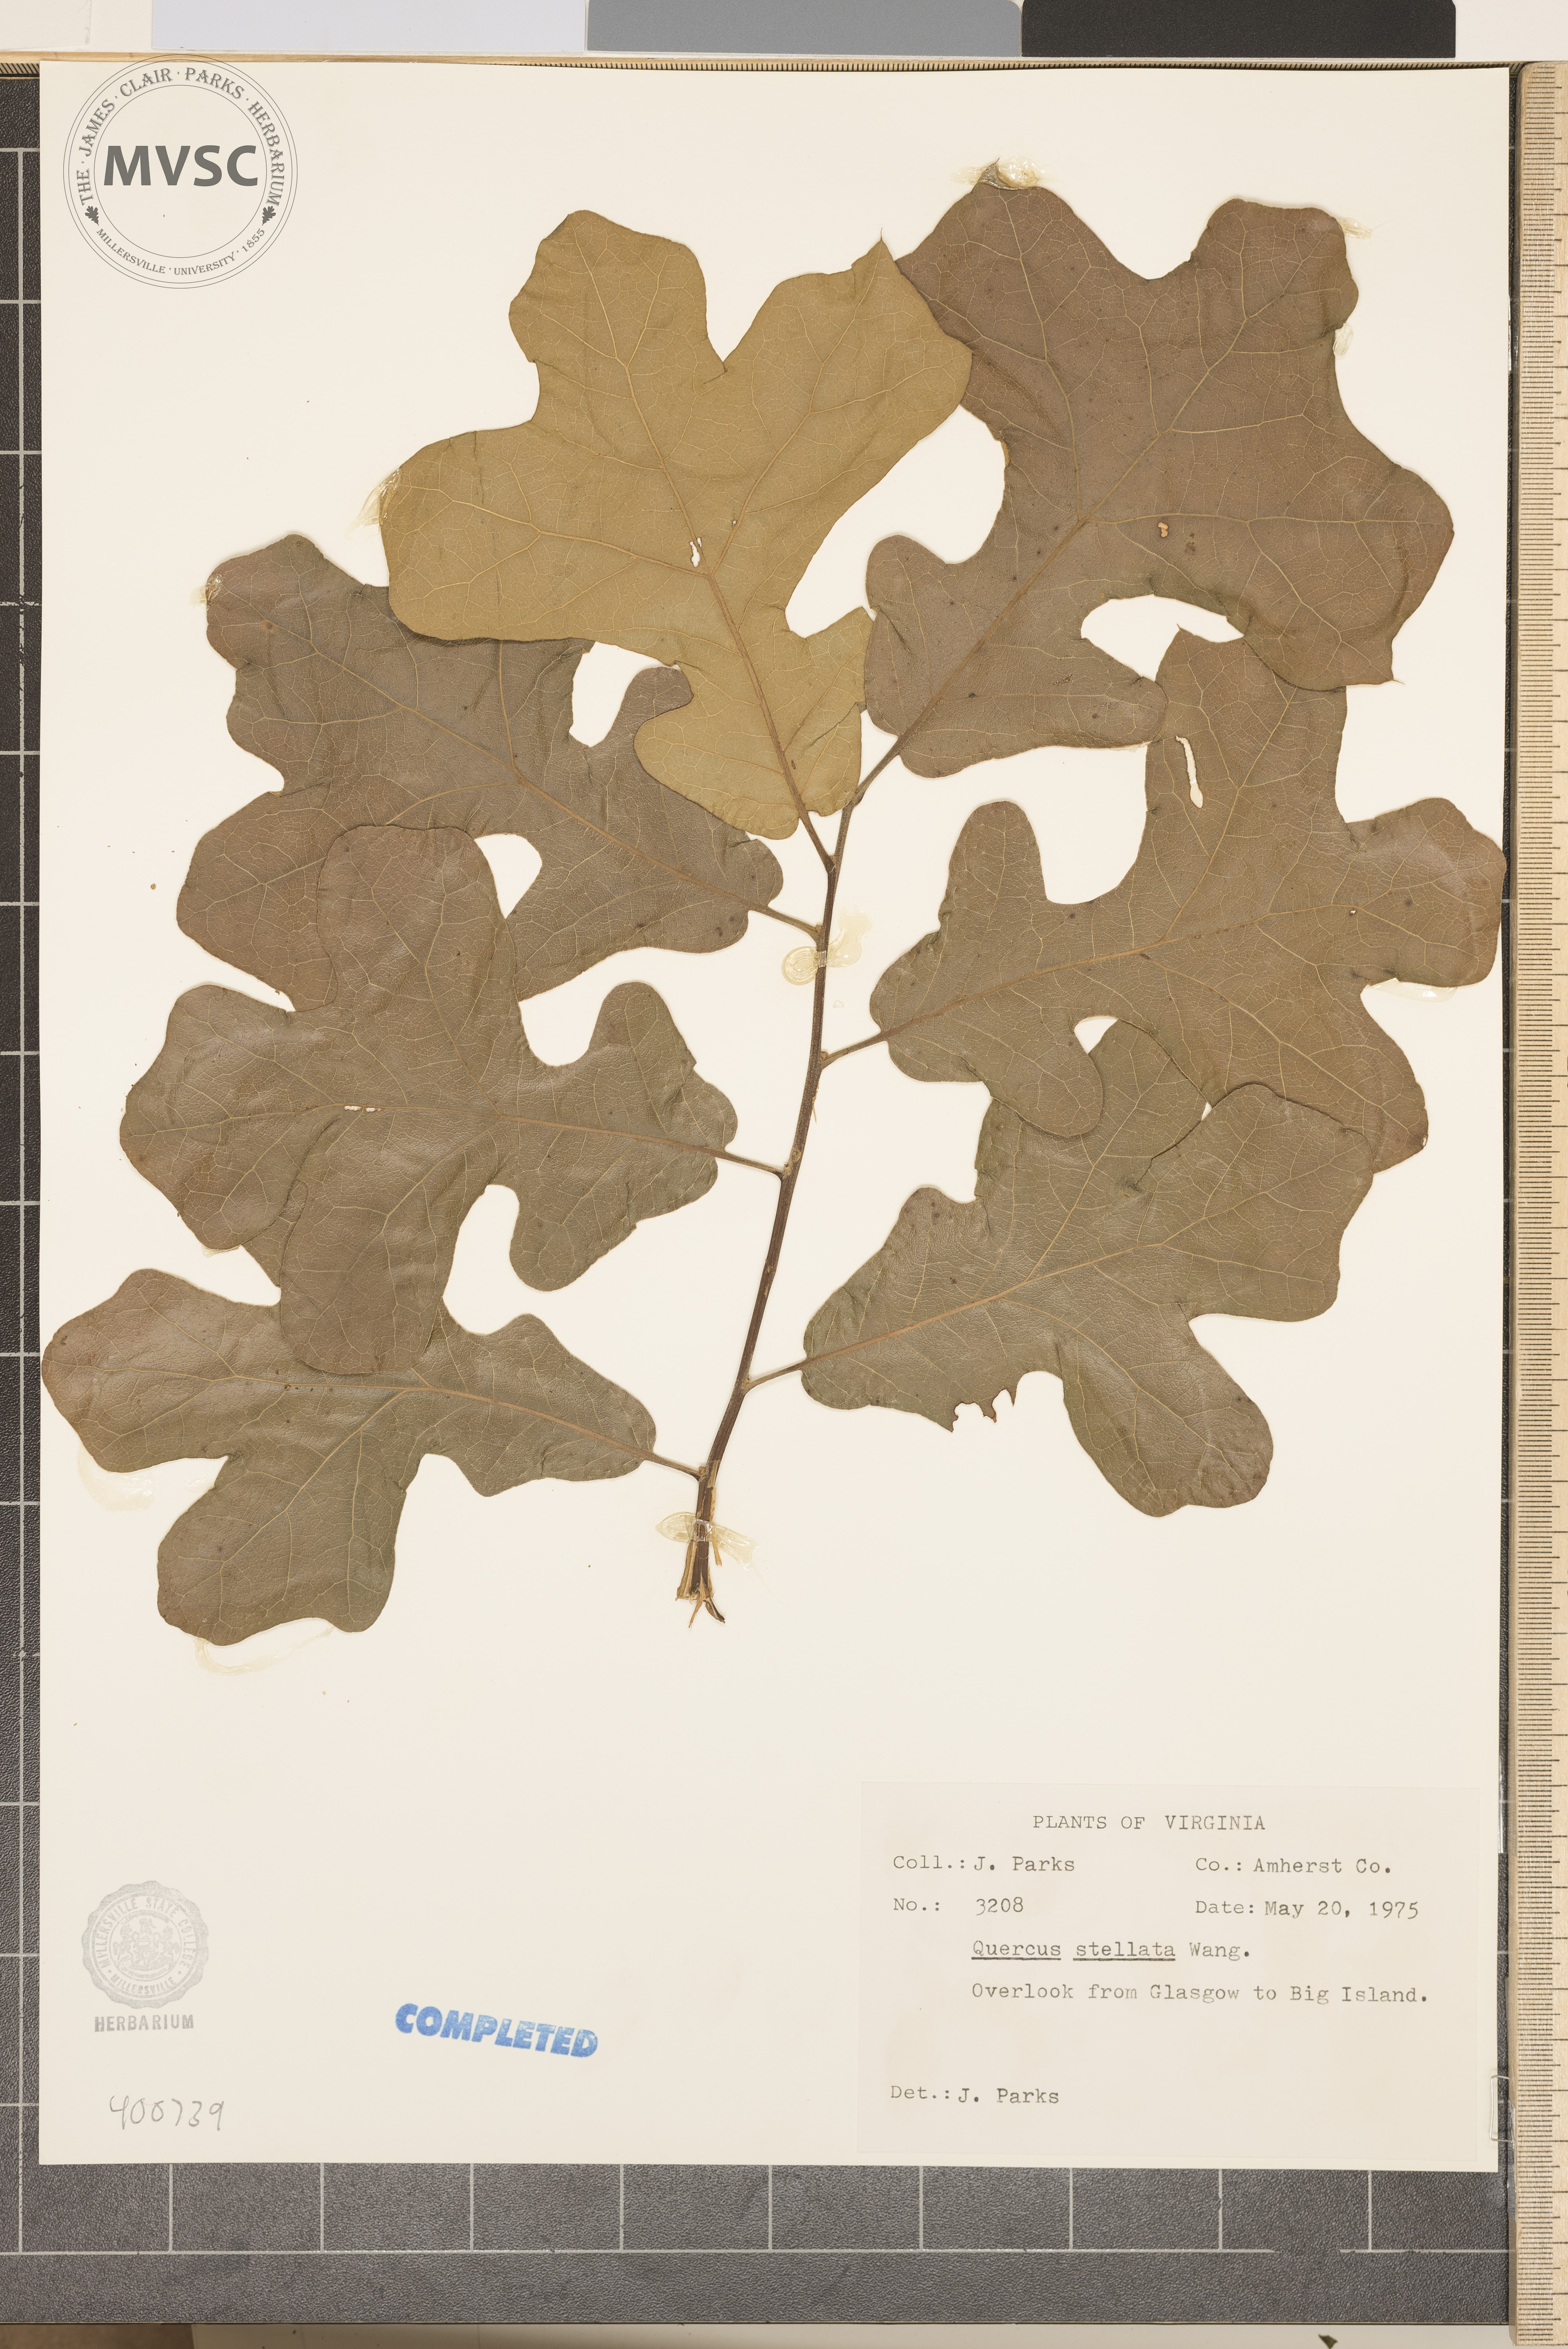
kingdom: Plantae
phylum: Tracheophyta
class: Magnoliopsida
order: Fagales
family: Fagaceae
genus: Quercus
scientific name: Quercus stellata
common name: Post oak
